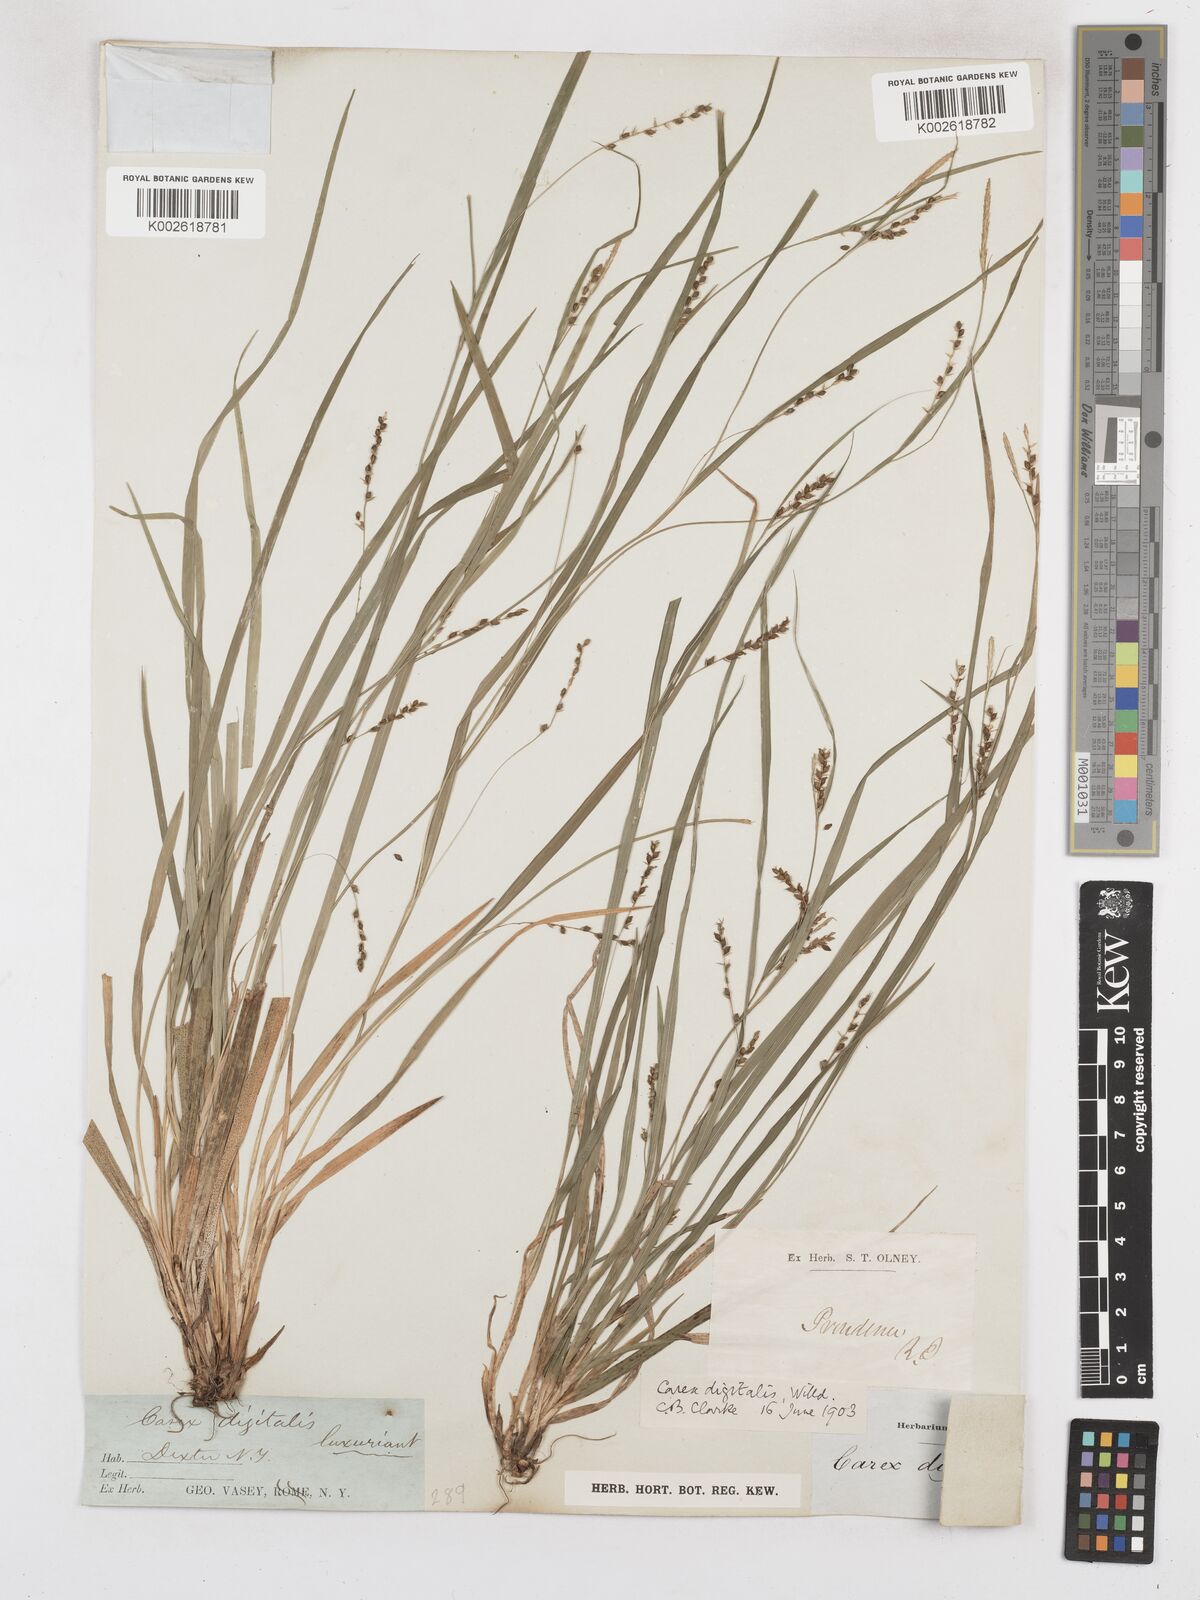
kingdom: Plantae
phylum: Tracheophyta
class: Liliopsida
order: Poales
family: Cyperaceae
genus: Carex
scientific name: Carex digitalis
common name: Slender wood sedge
